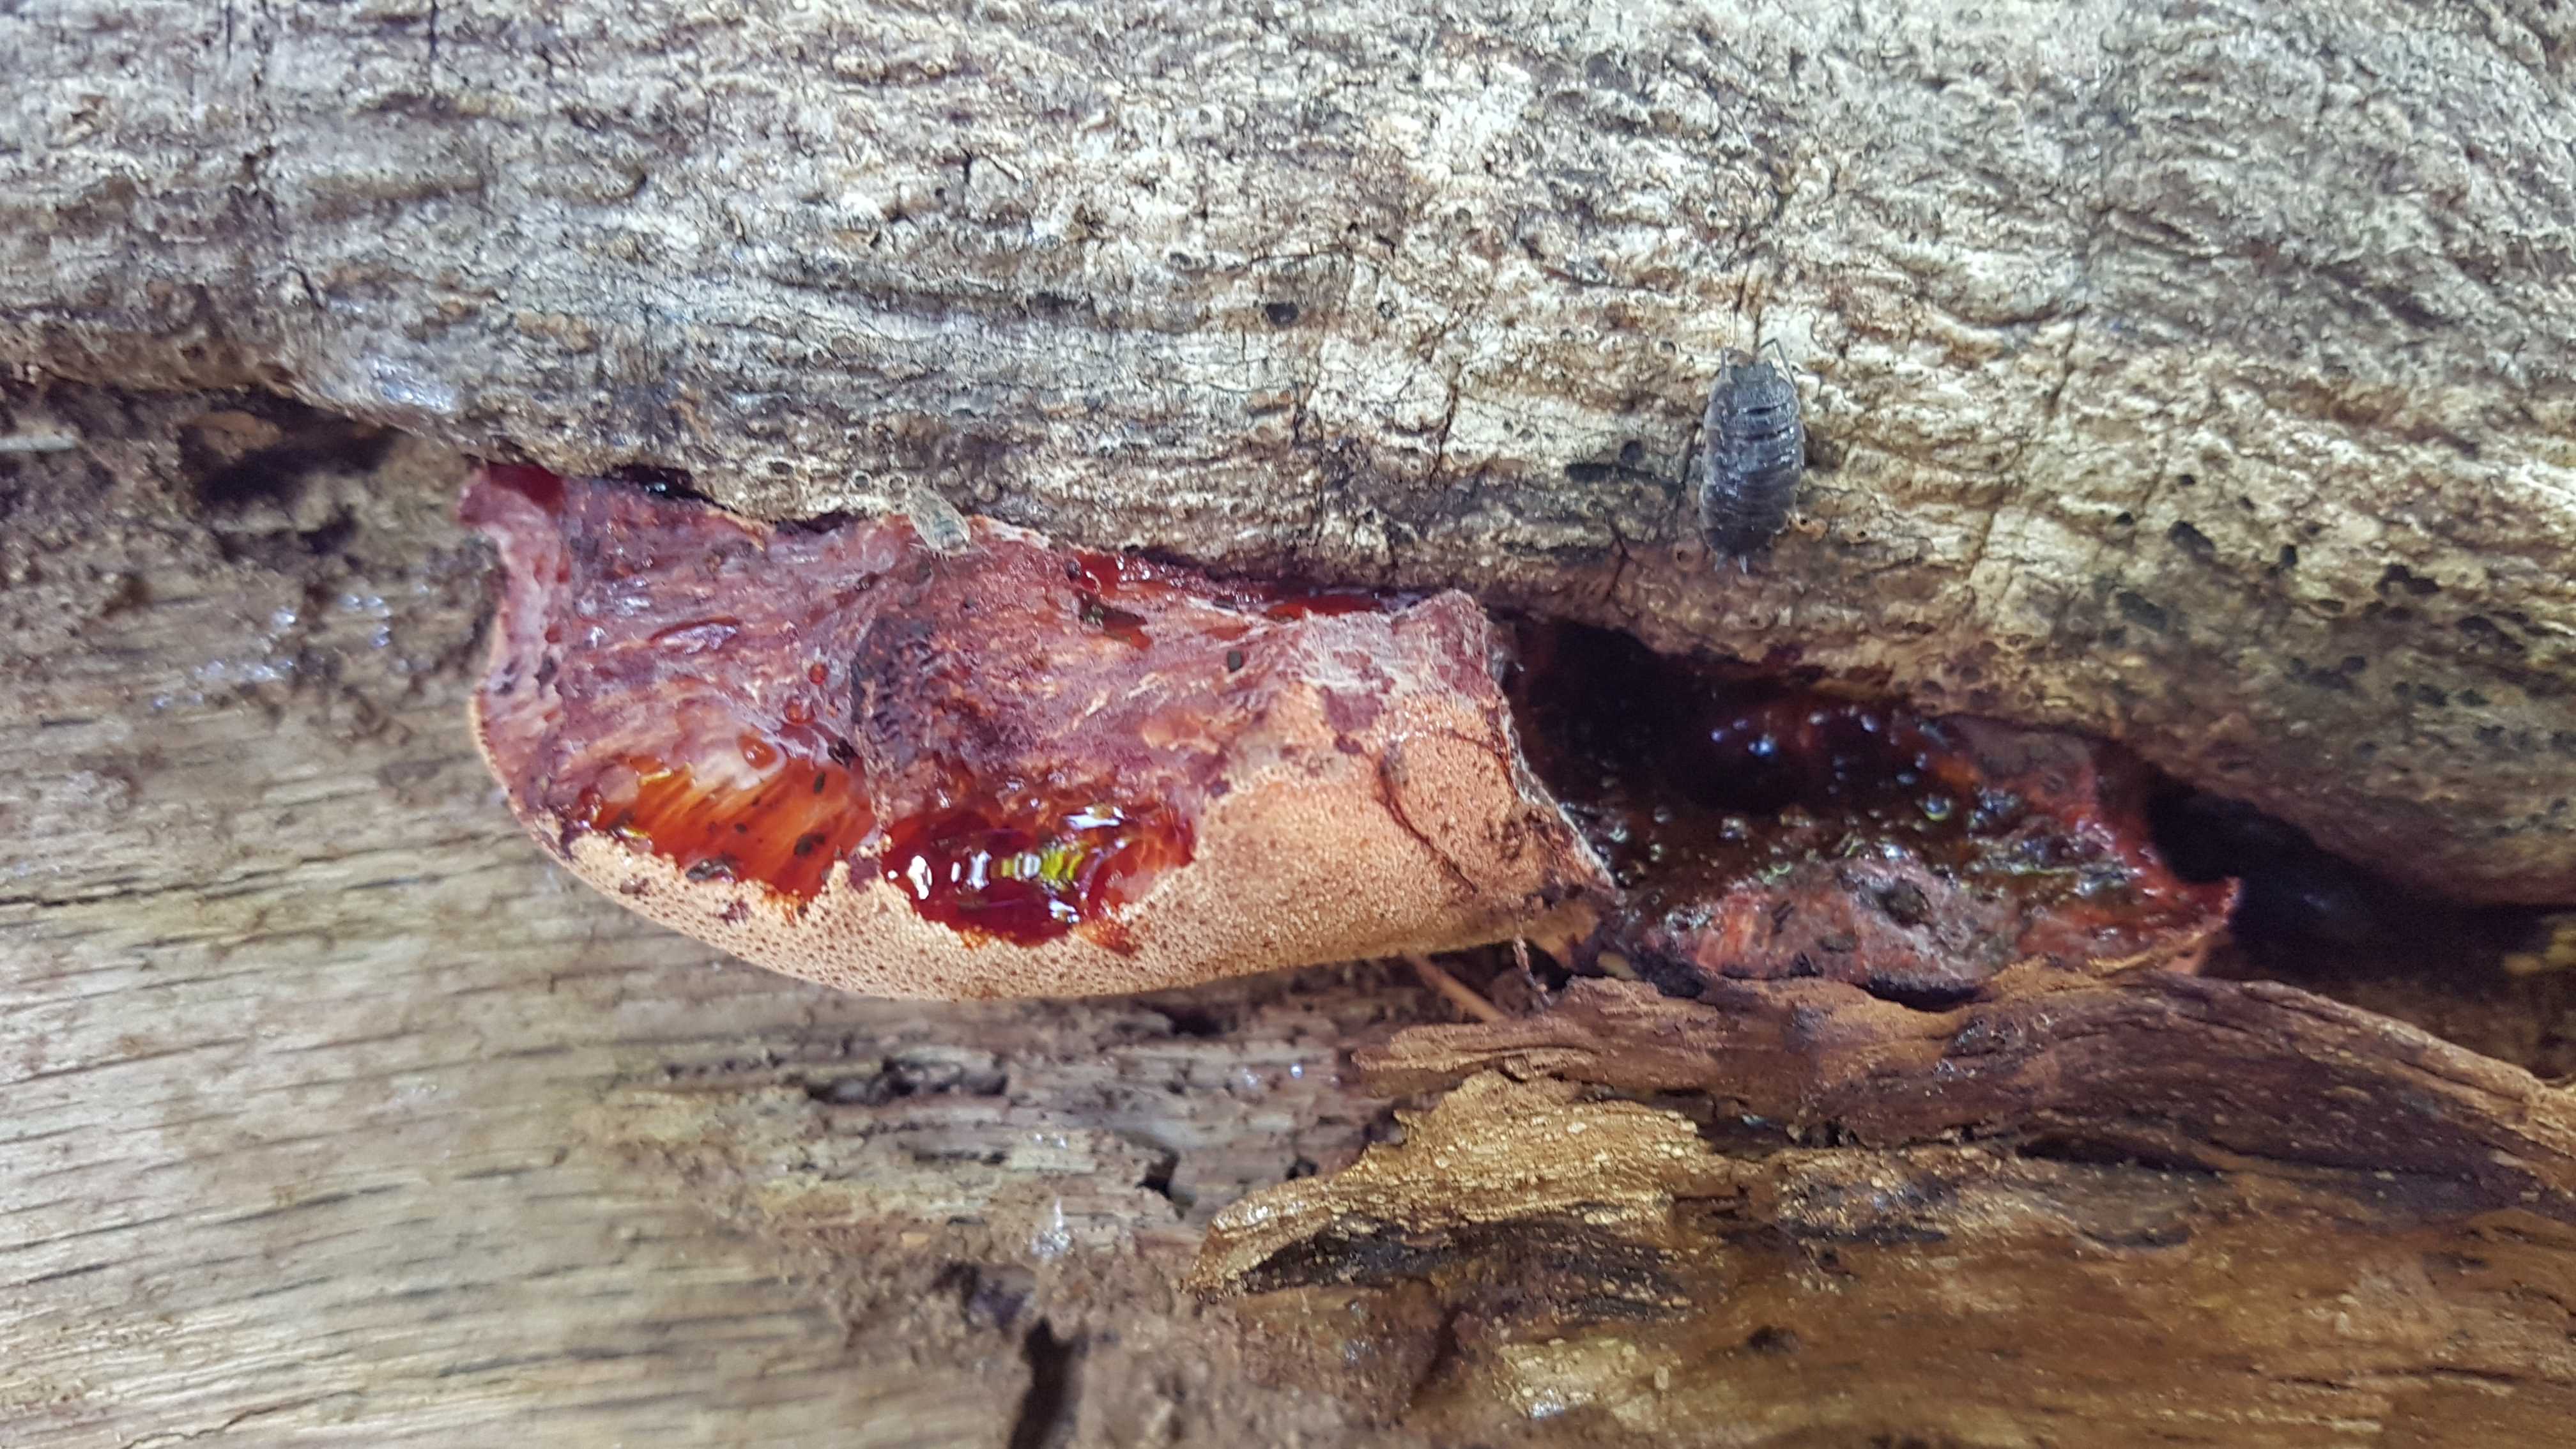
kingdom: Fungi
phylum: Basidiomycota
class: Agaricomycetes
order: Agaricales
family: Fistulinaceae
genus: Fistulina
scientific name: Fistulina hepatica
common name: oksetunge
